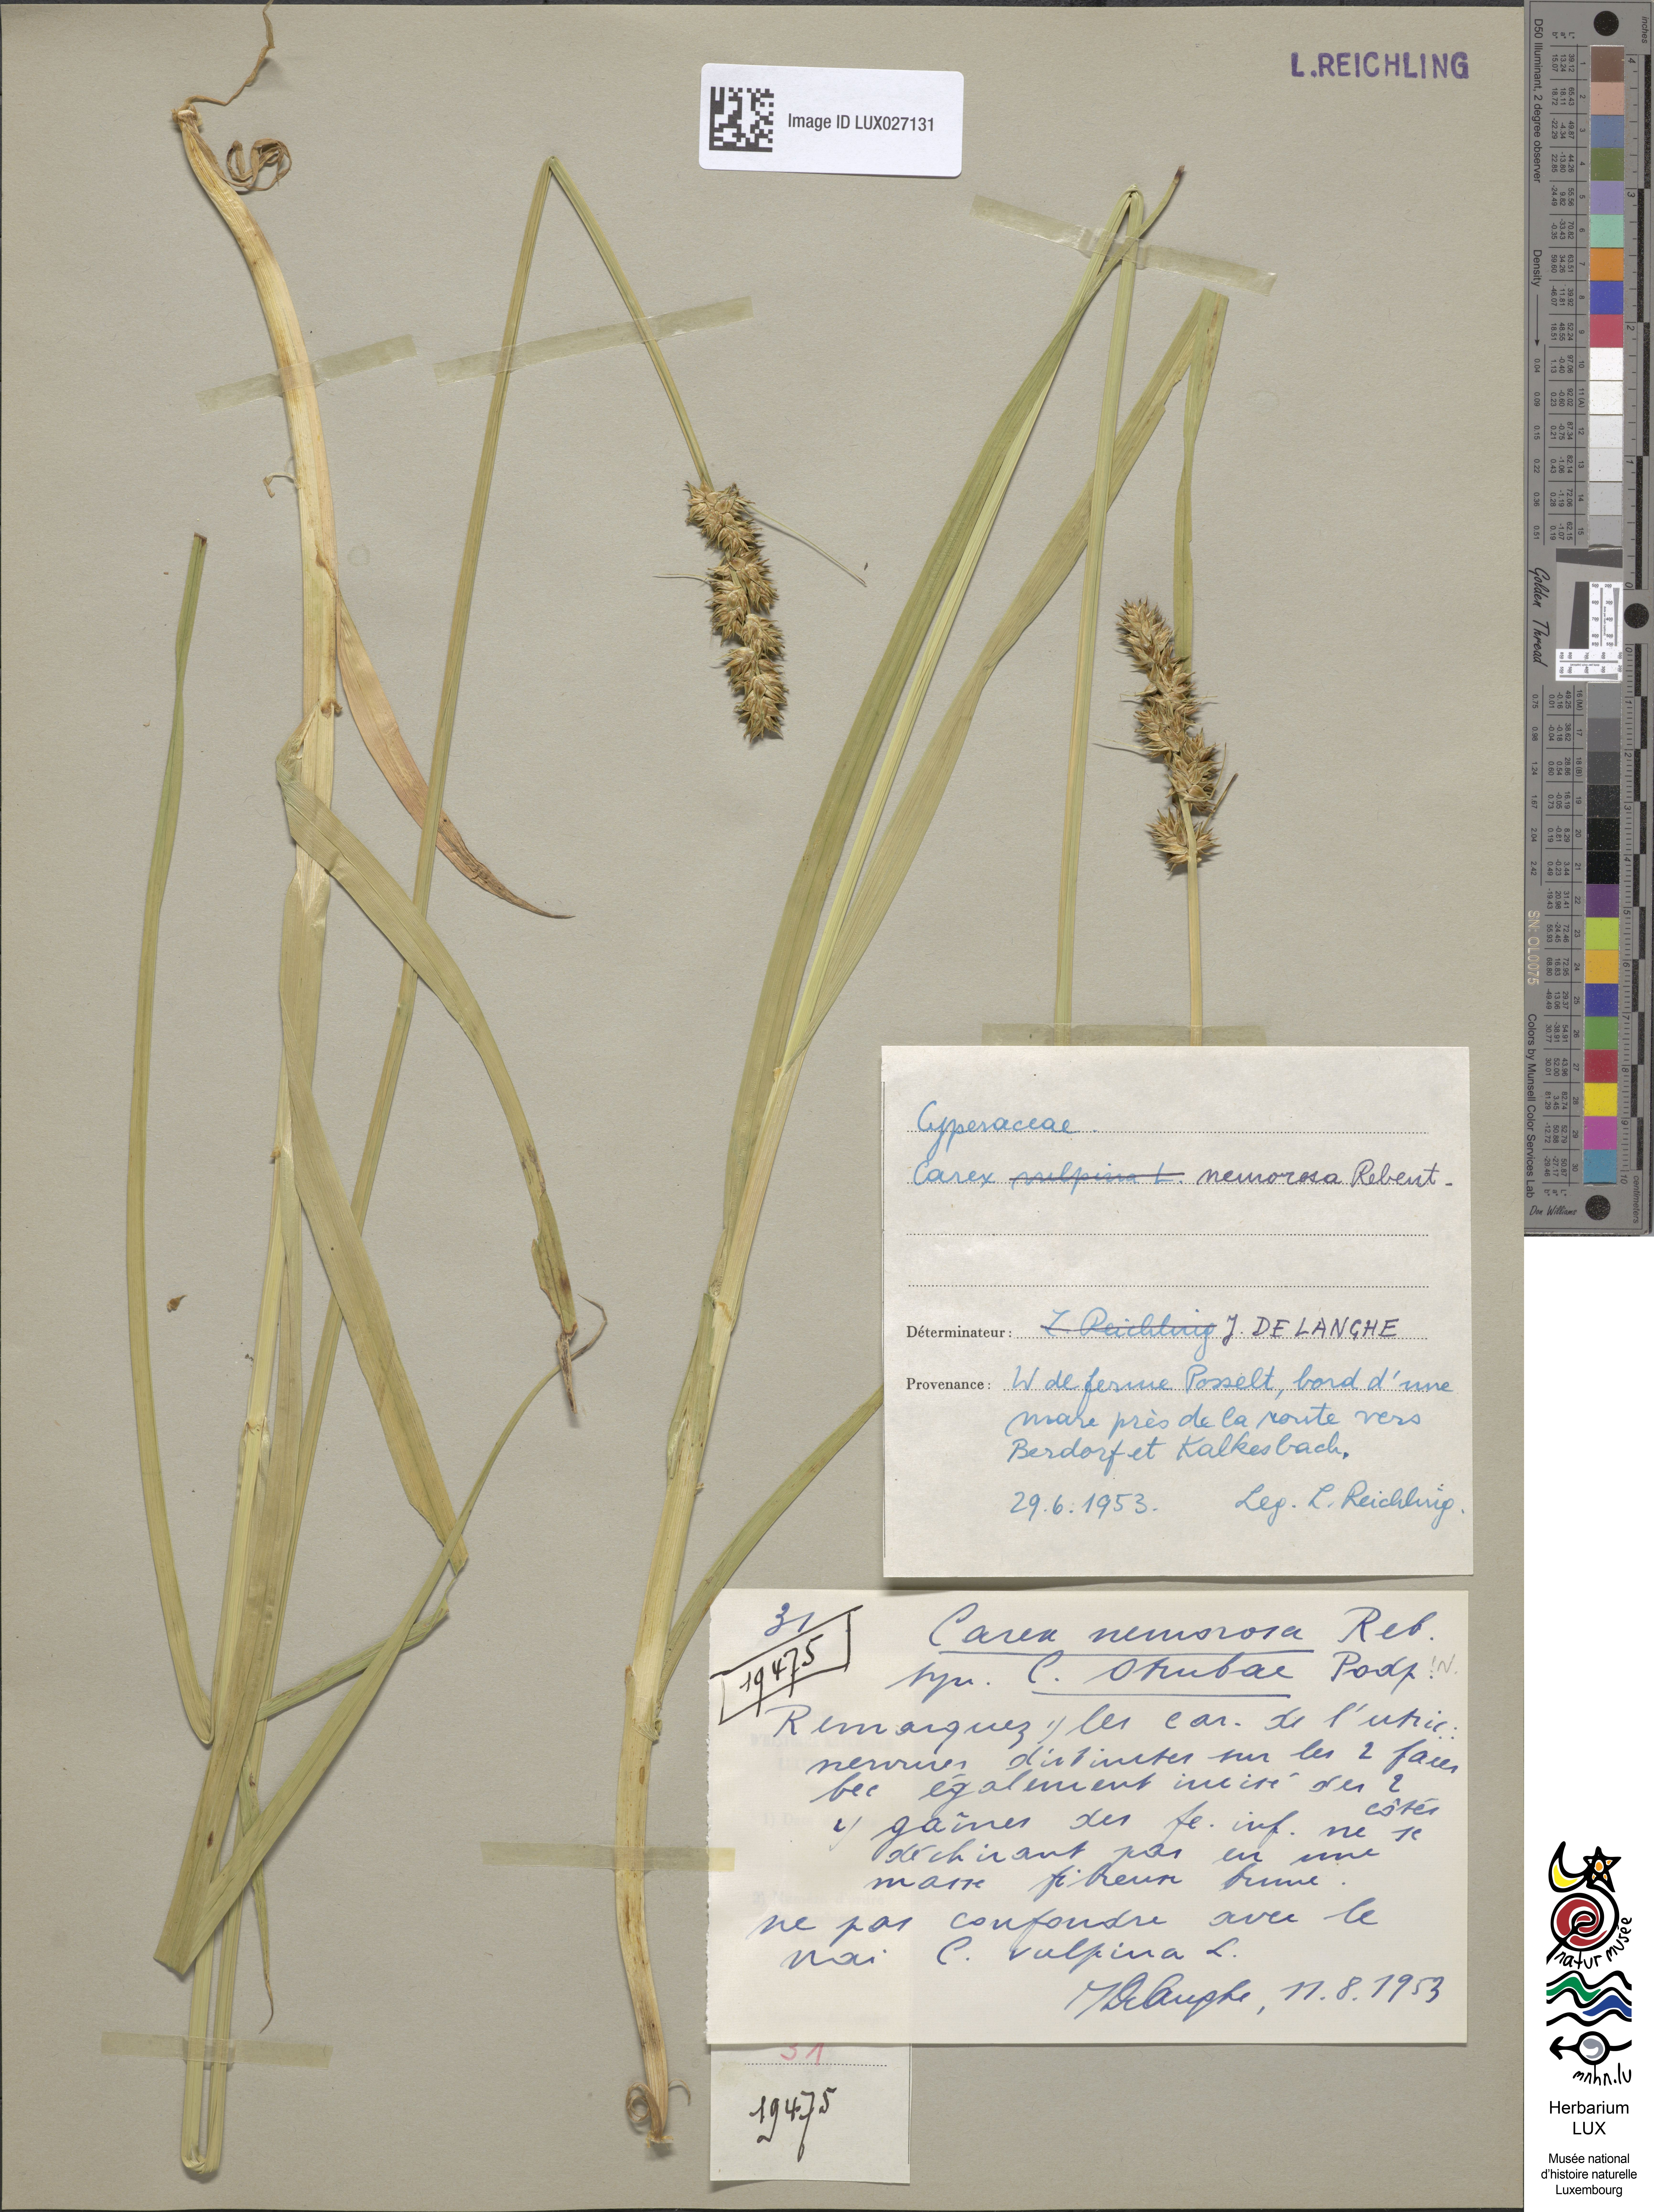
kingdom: Plantae
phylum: Tracheophyta
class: Liliopsida
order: Poales
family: Cyperaceae
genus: Carex
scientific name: Carex otrubae
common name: False fox-sedge
